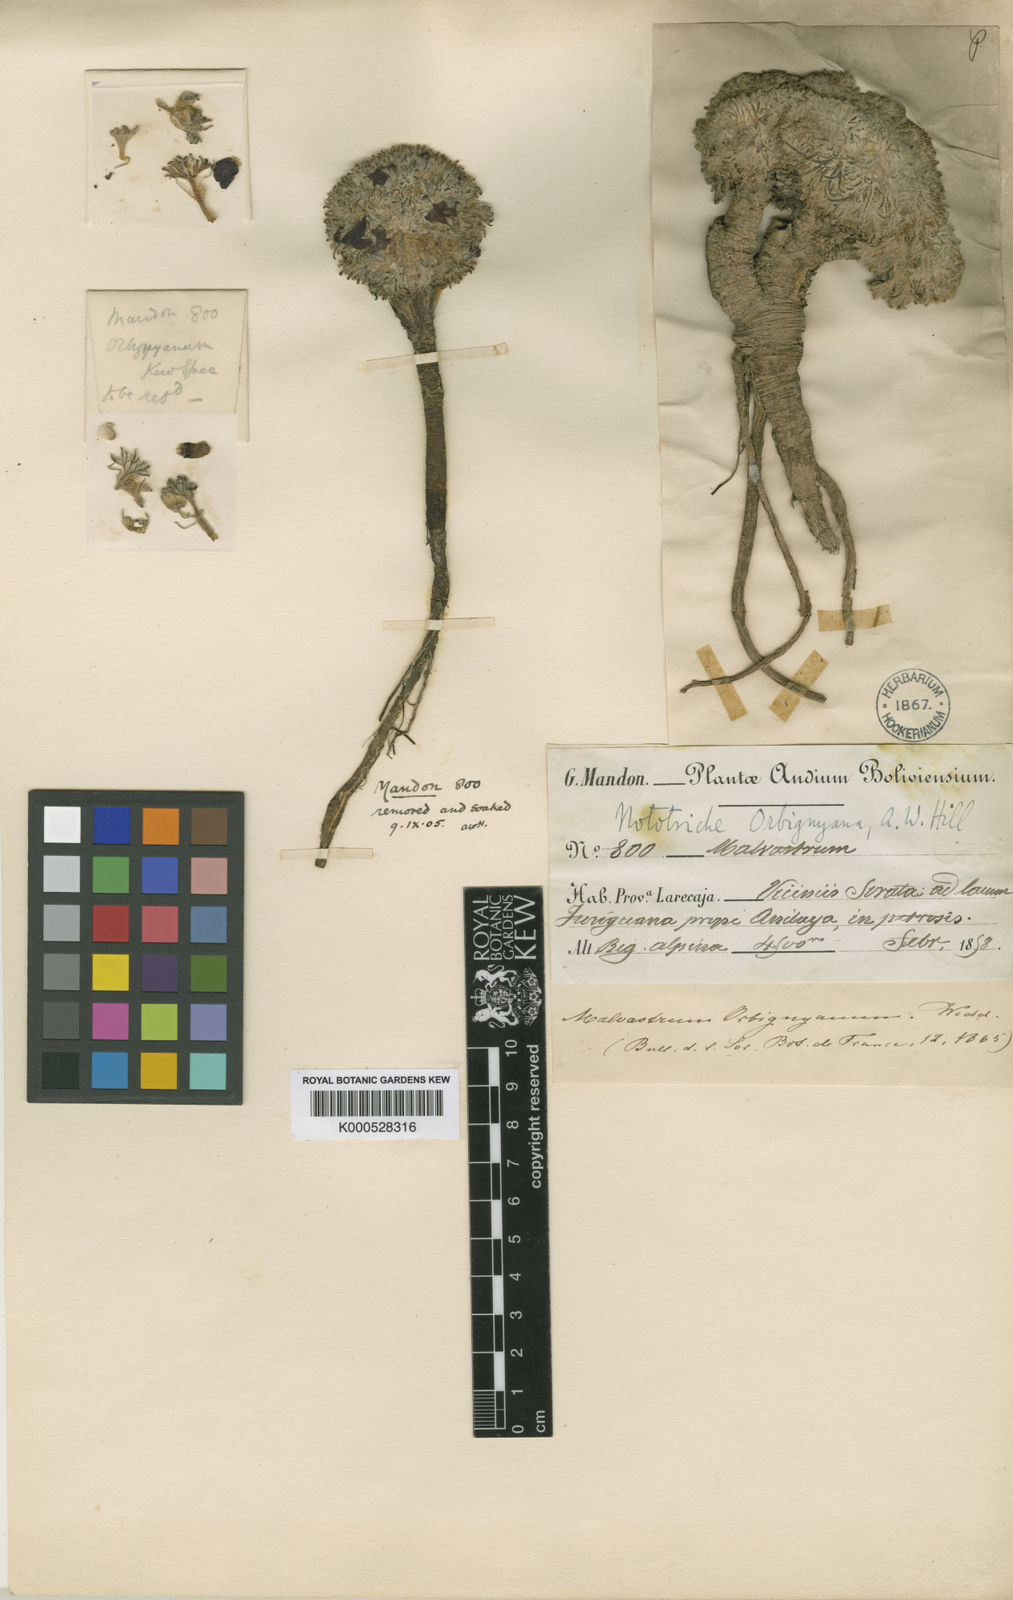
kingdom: Plantae
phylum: Tracheophyta
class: Magnoliopsida
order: Malvales
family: Malvaceae
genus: Nototriche
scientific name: Nototriche orbignyana
